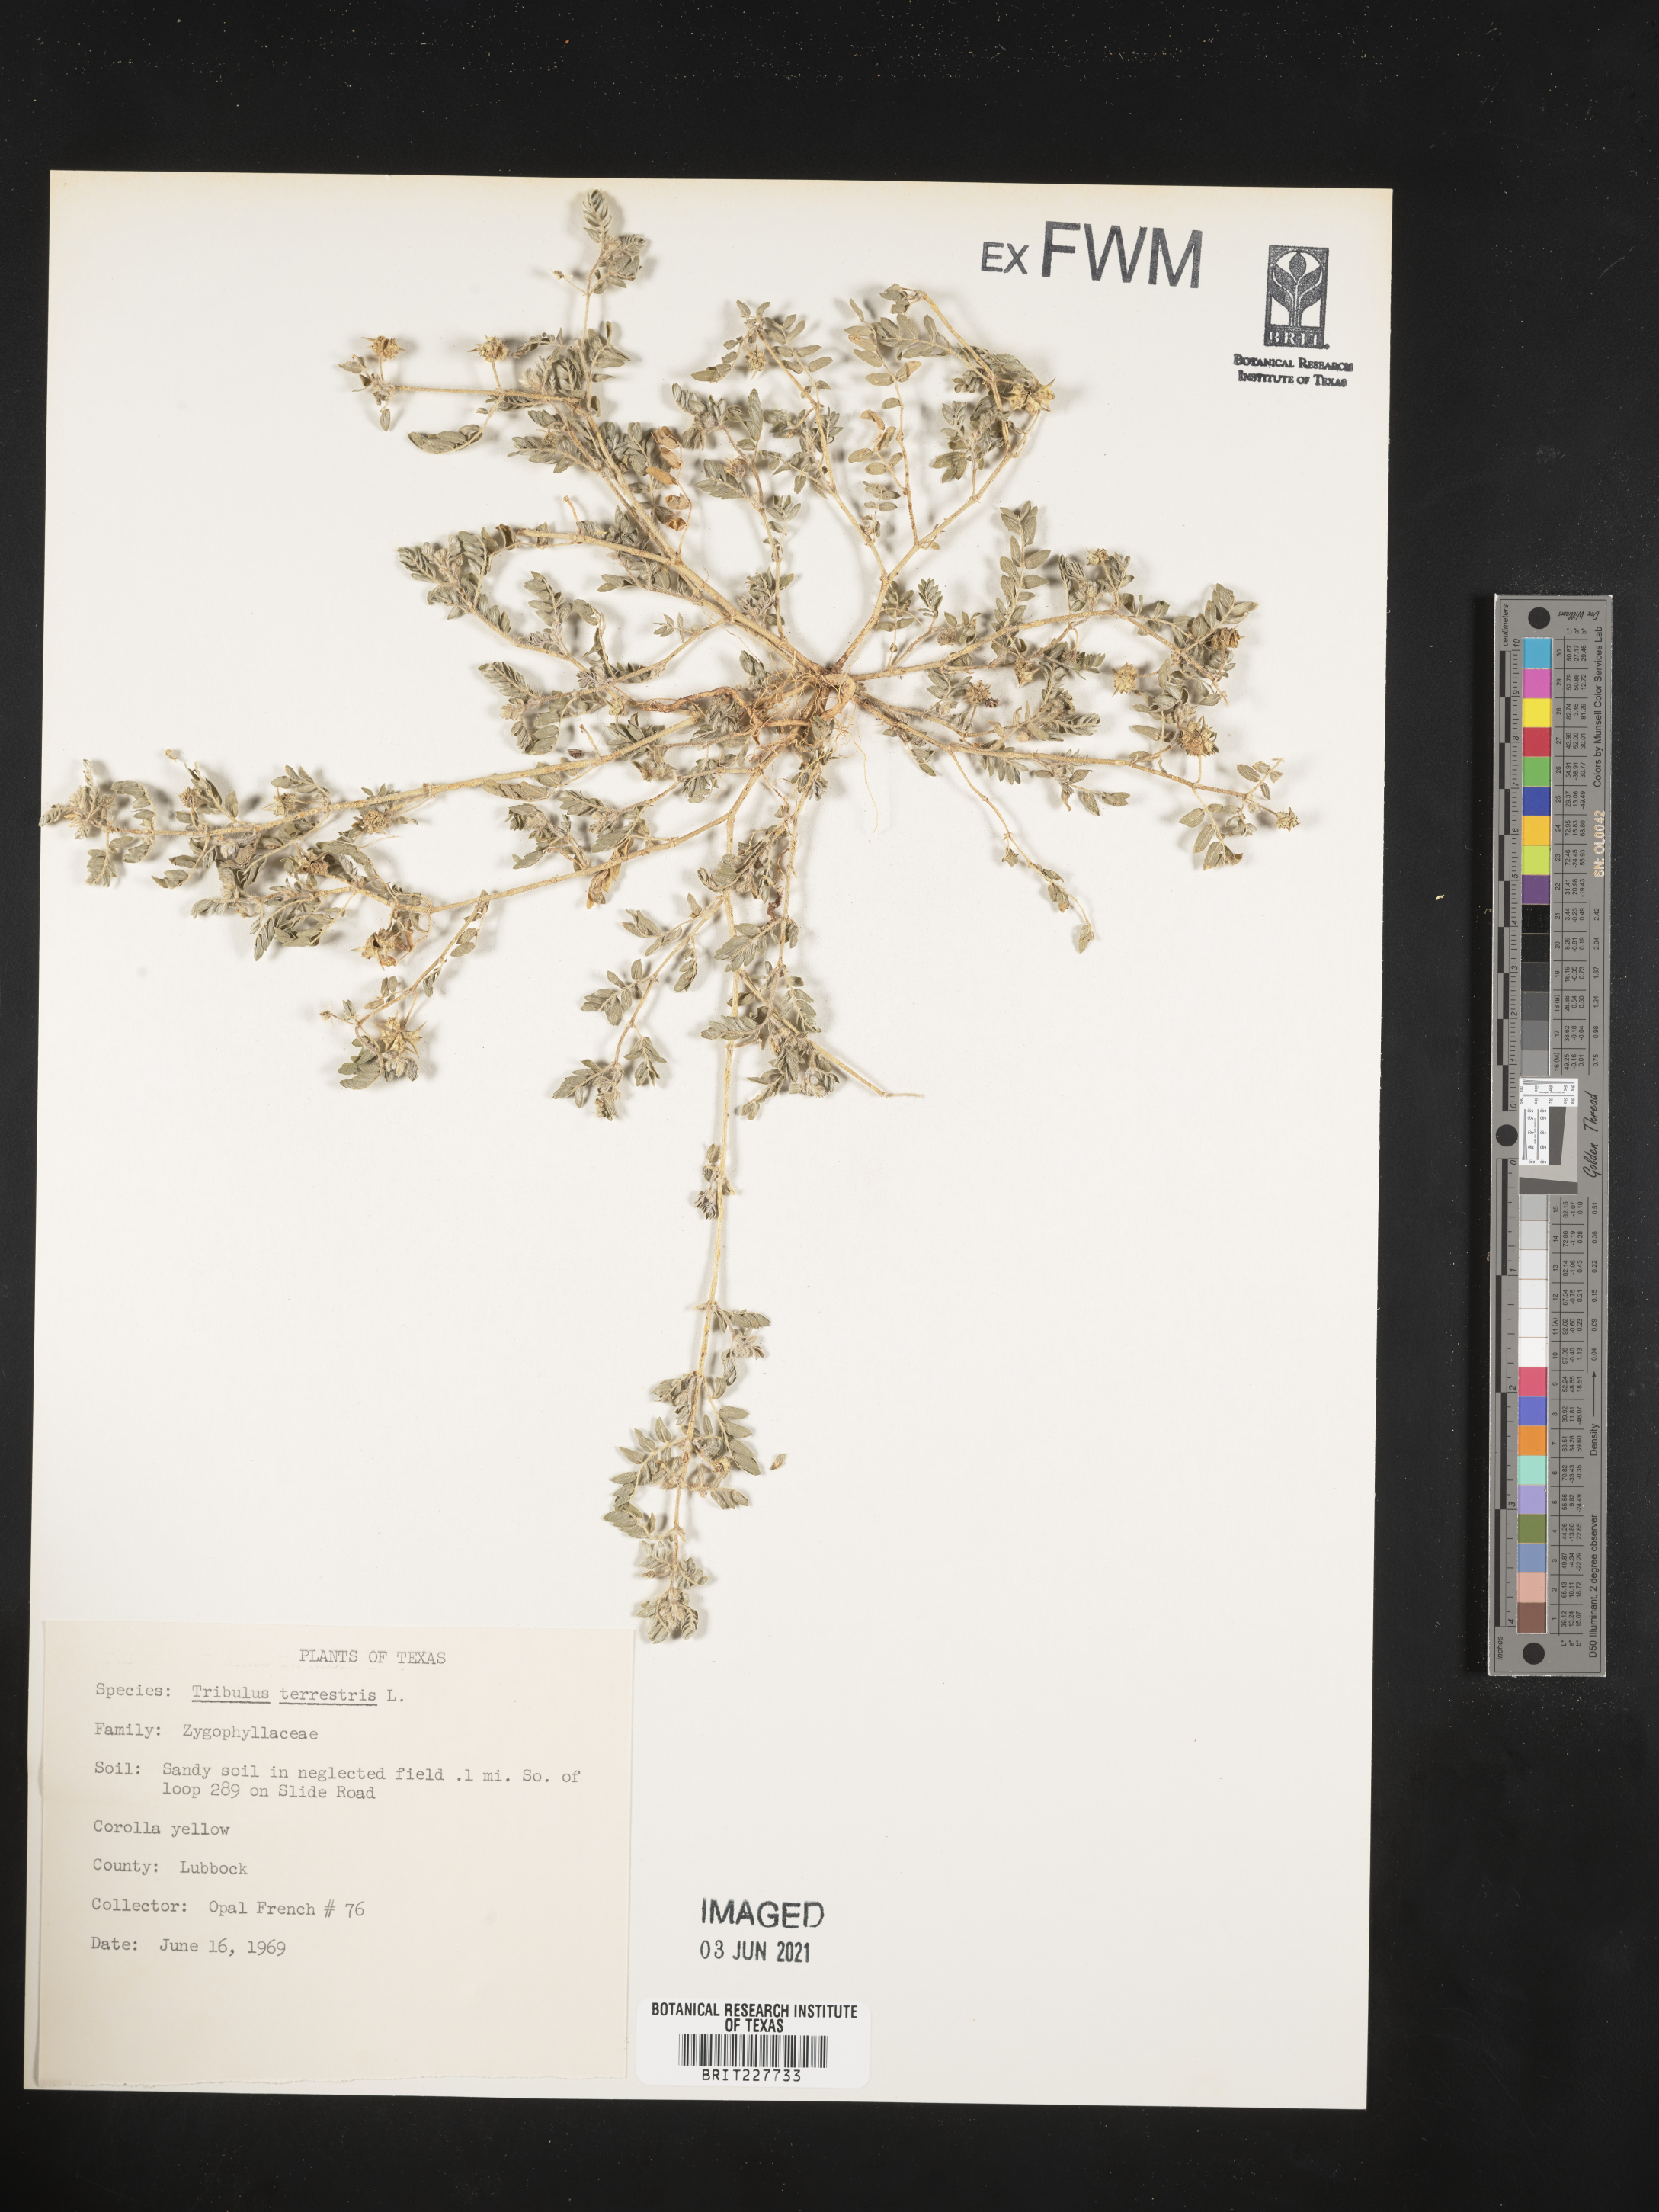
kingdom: Plantae
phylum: Tracheophyta
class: Magnoliopsida
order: Zygophyllales
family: Zygophyllaceae
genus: Tribulus
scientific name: Tribulus terrestris
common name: Puncturevine
